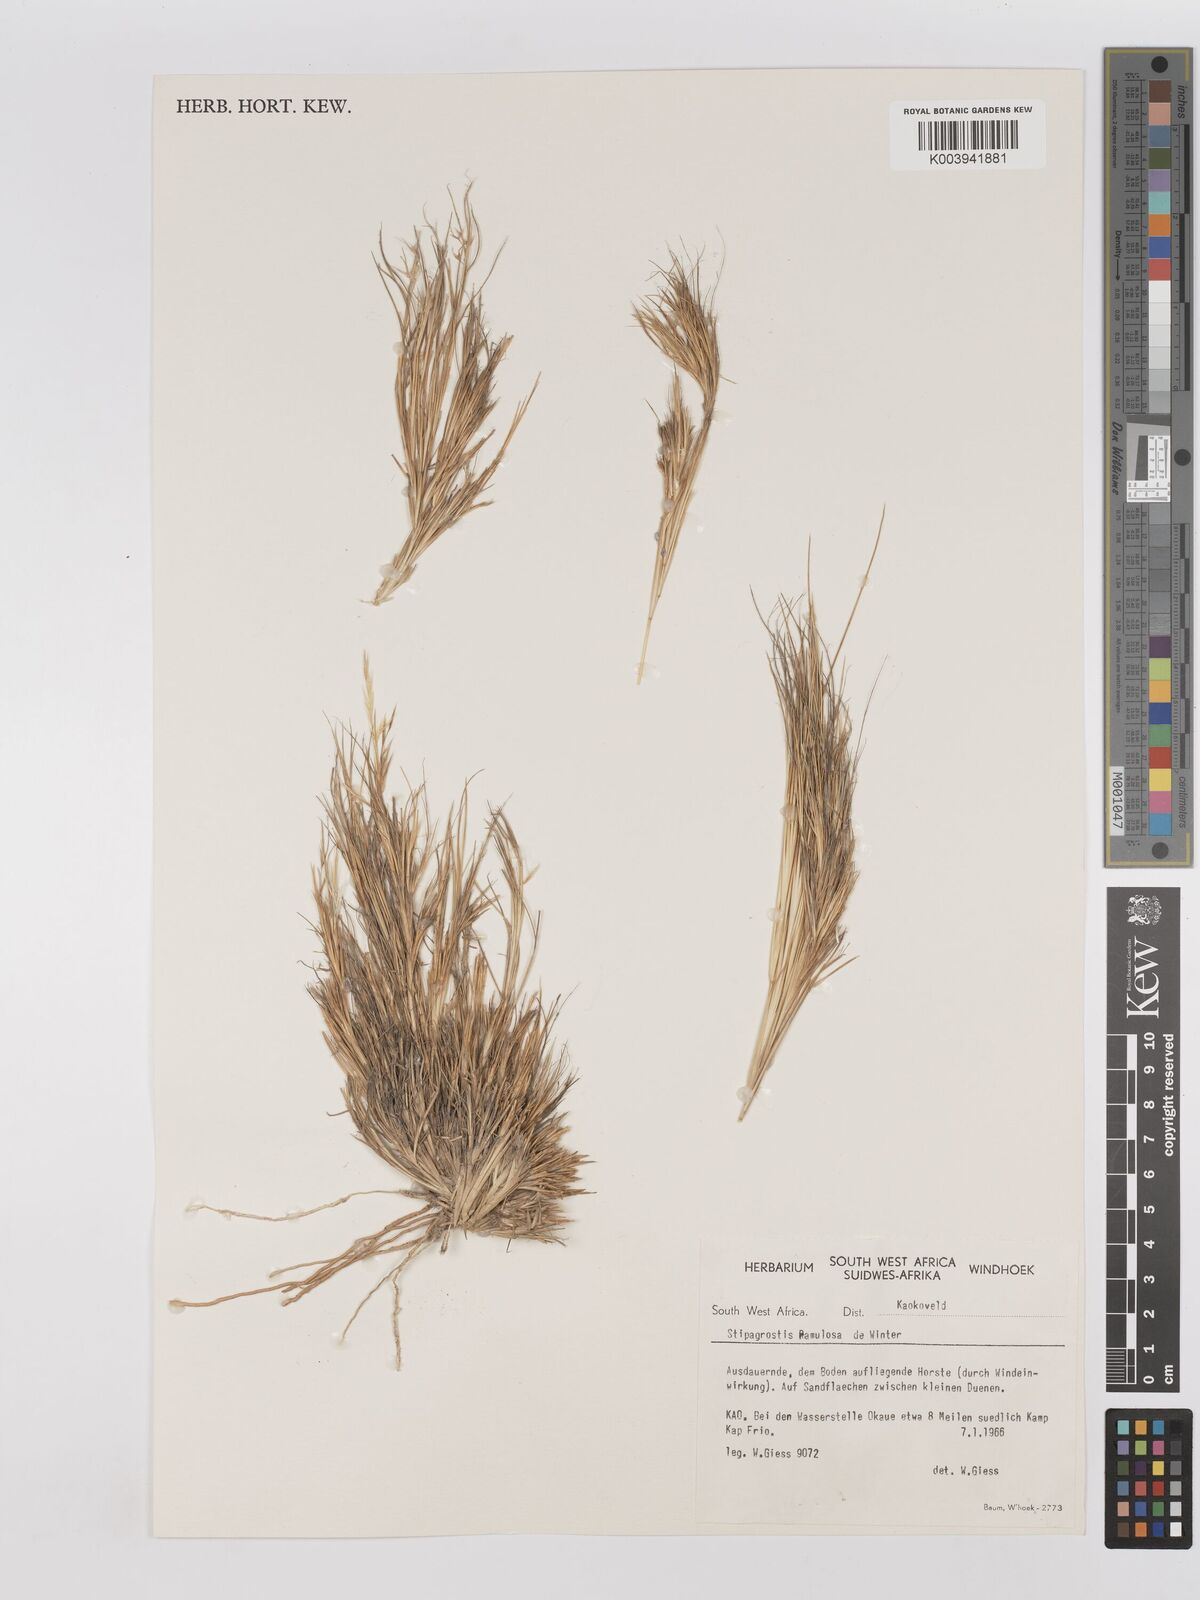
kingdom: Plantae
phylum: Tracheophyta
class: Liliopsida
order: Poales
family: Poaceae
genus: Stipagrostis
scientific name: Stipagrostis ramulosa
